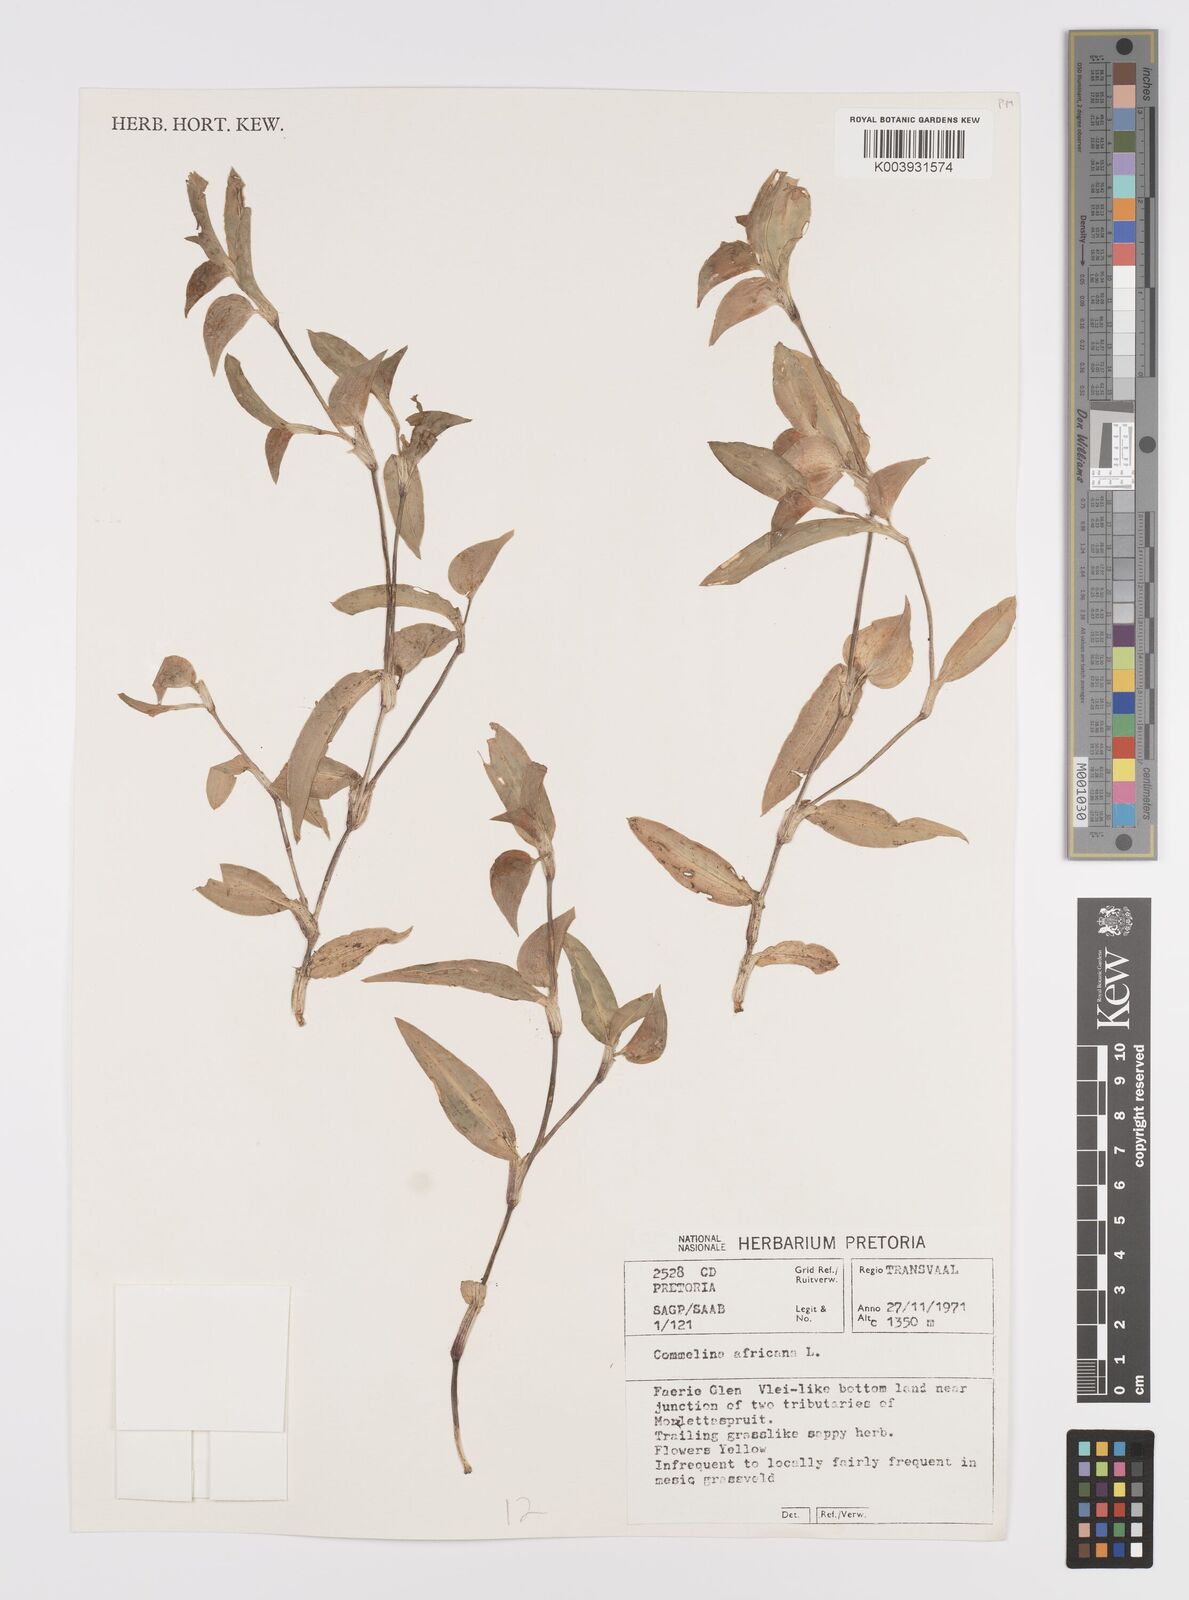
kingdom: Plantae
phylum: Tracheophyta
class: Liliopsida
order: Commelinales
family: Commelinaceae
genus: Commelina
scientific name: Commelina africana
